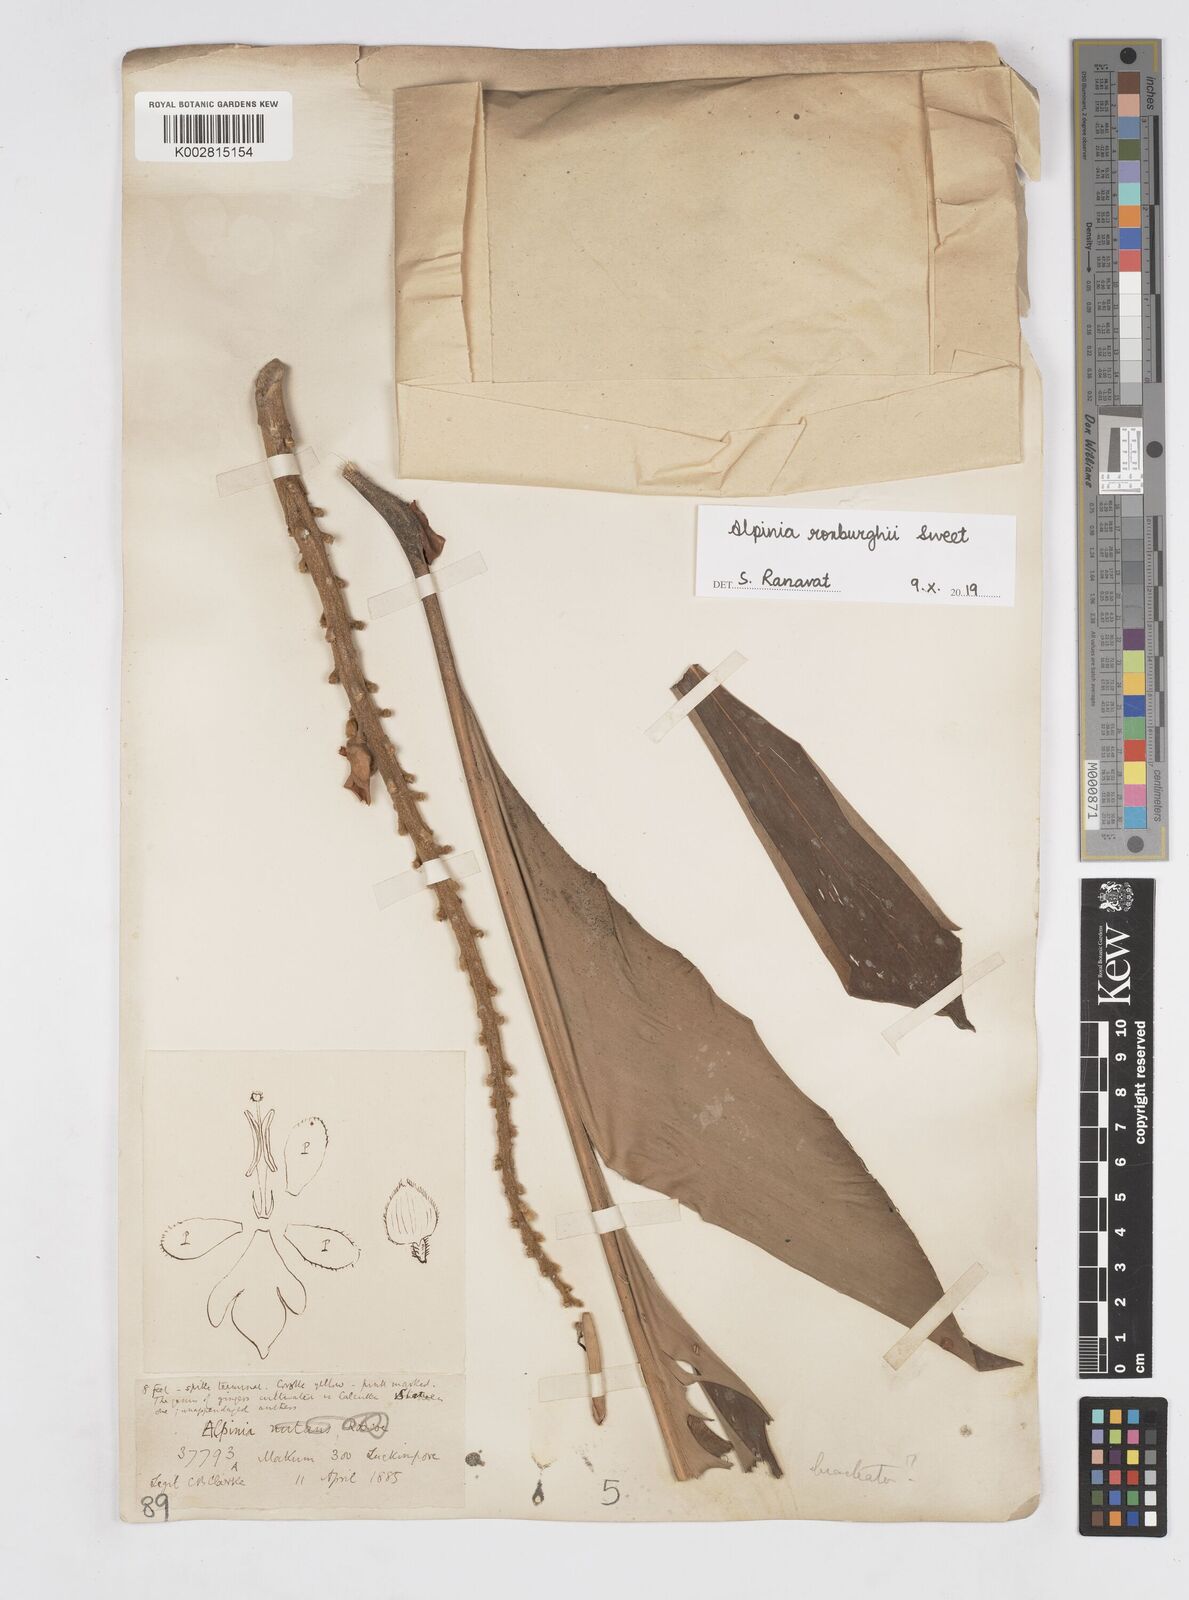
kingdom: Plantae
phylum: Tracheophyta
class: Liliopsida
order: Zingiberales
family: Zingiberaceae
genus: Alpinia
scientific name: Alpinia roxburghii
